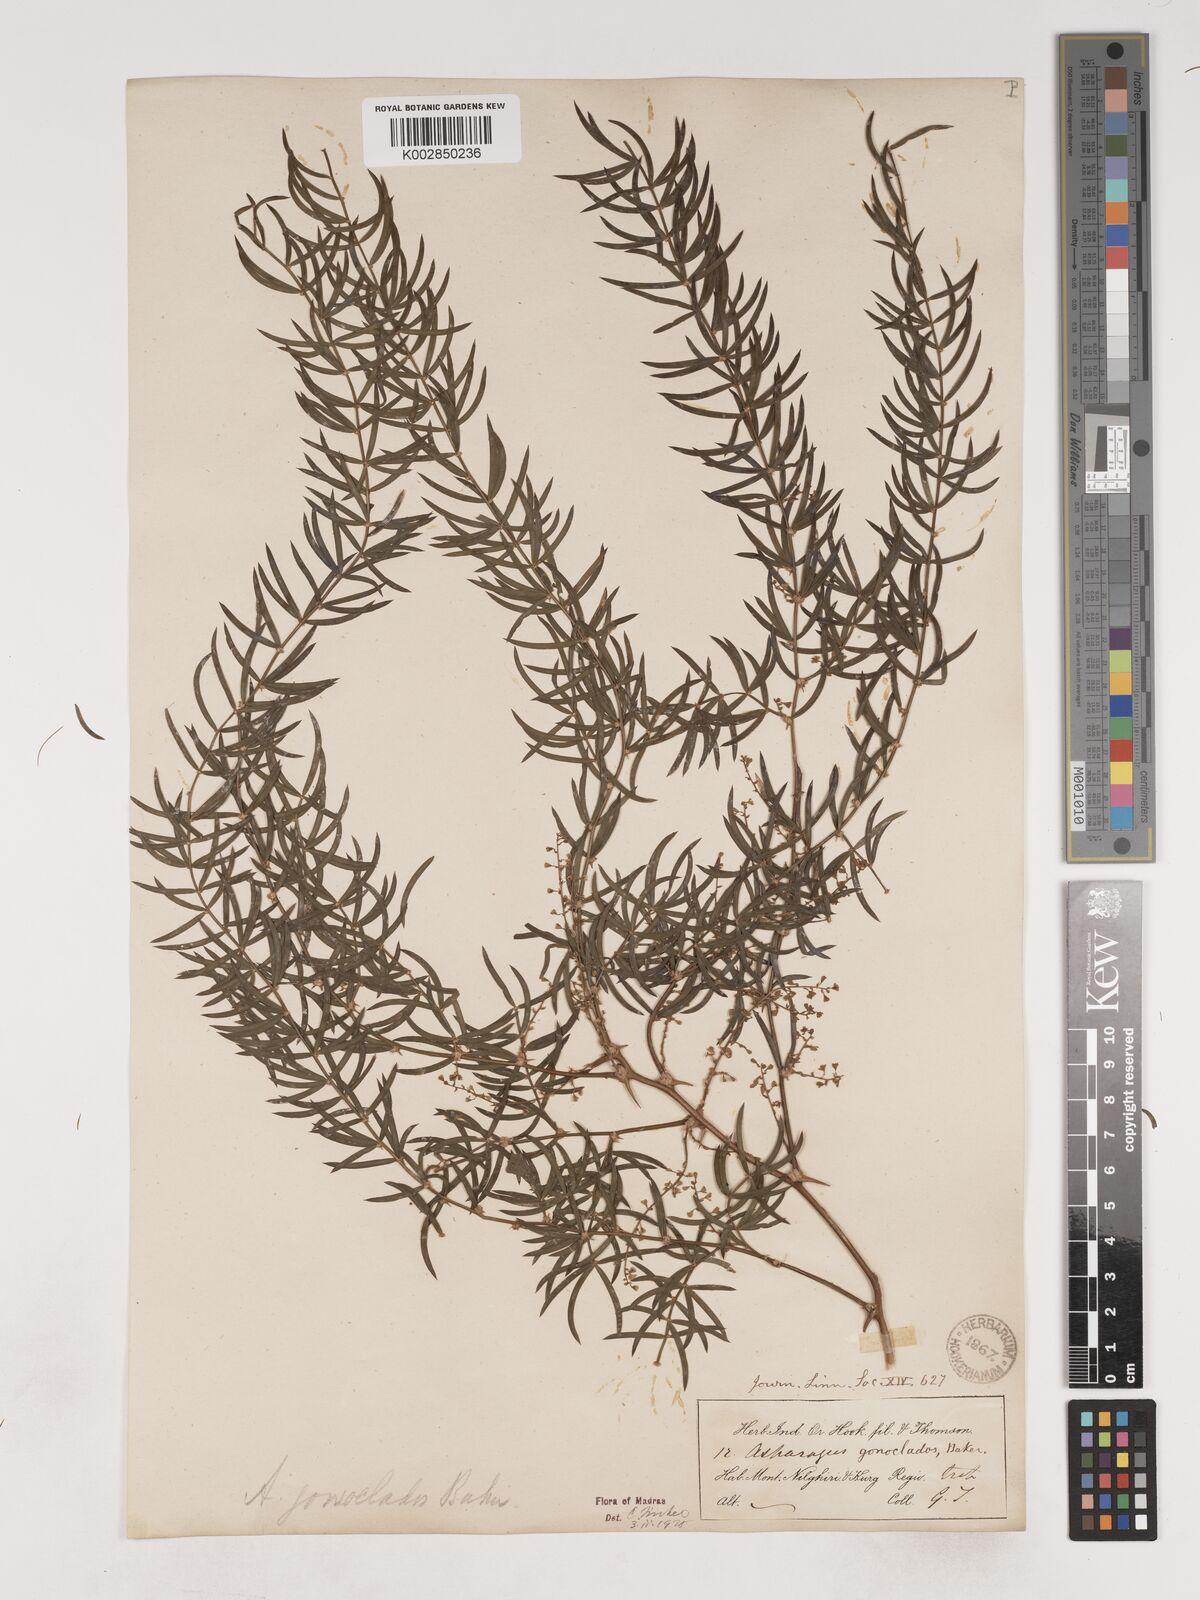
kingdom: Plantae
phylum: Tracheophyta
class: Liliopsida
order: Asparagales
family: Asparagaceae
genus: Asparagus
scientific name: Asparagus gonoclados
